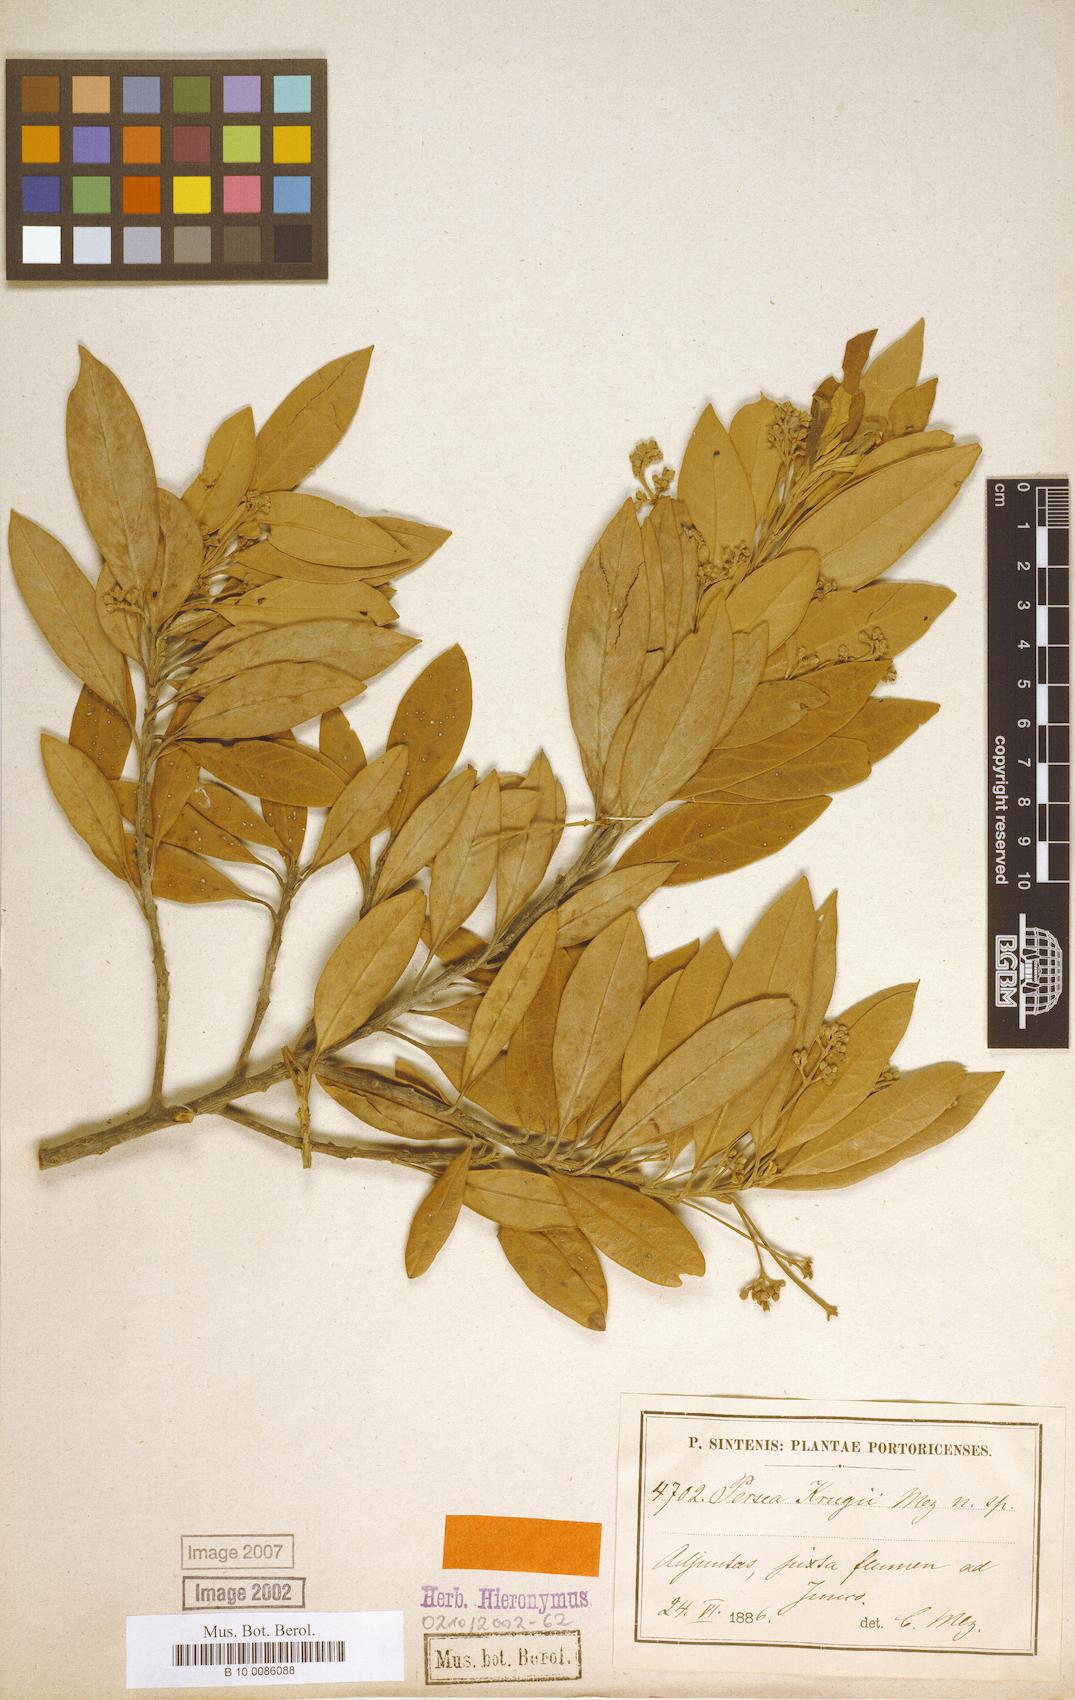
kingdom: Plantae
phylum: Tracheophyta
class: Magnoliopsida
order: Laurales
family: Lauraceae
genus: Persea
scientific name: Persea krugii
